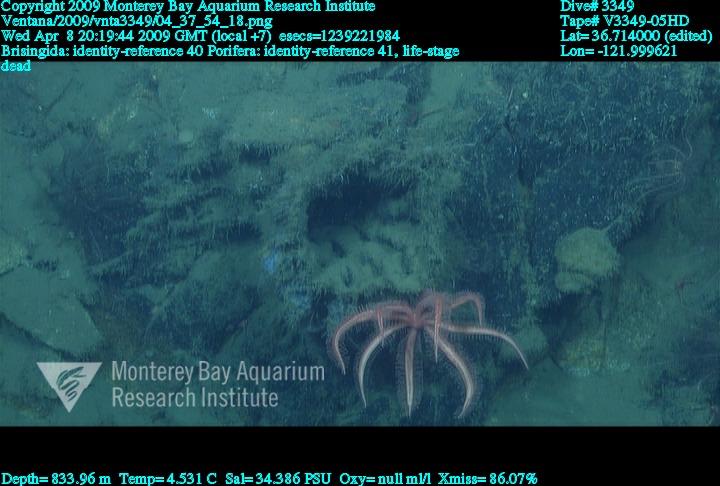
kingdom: Animalia
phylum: Porifera
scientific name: Porifera
